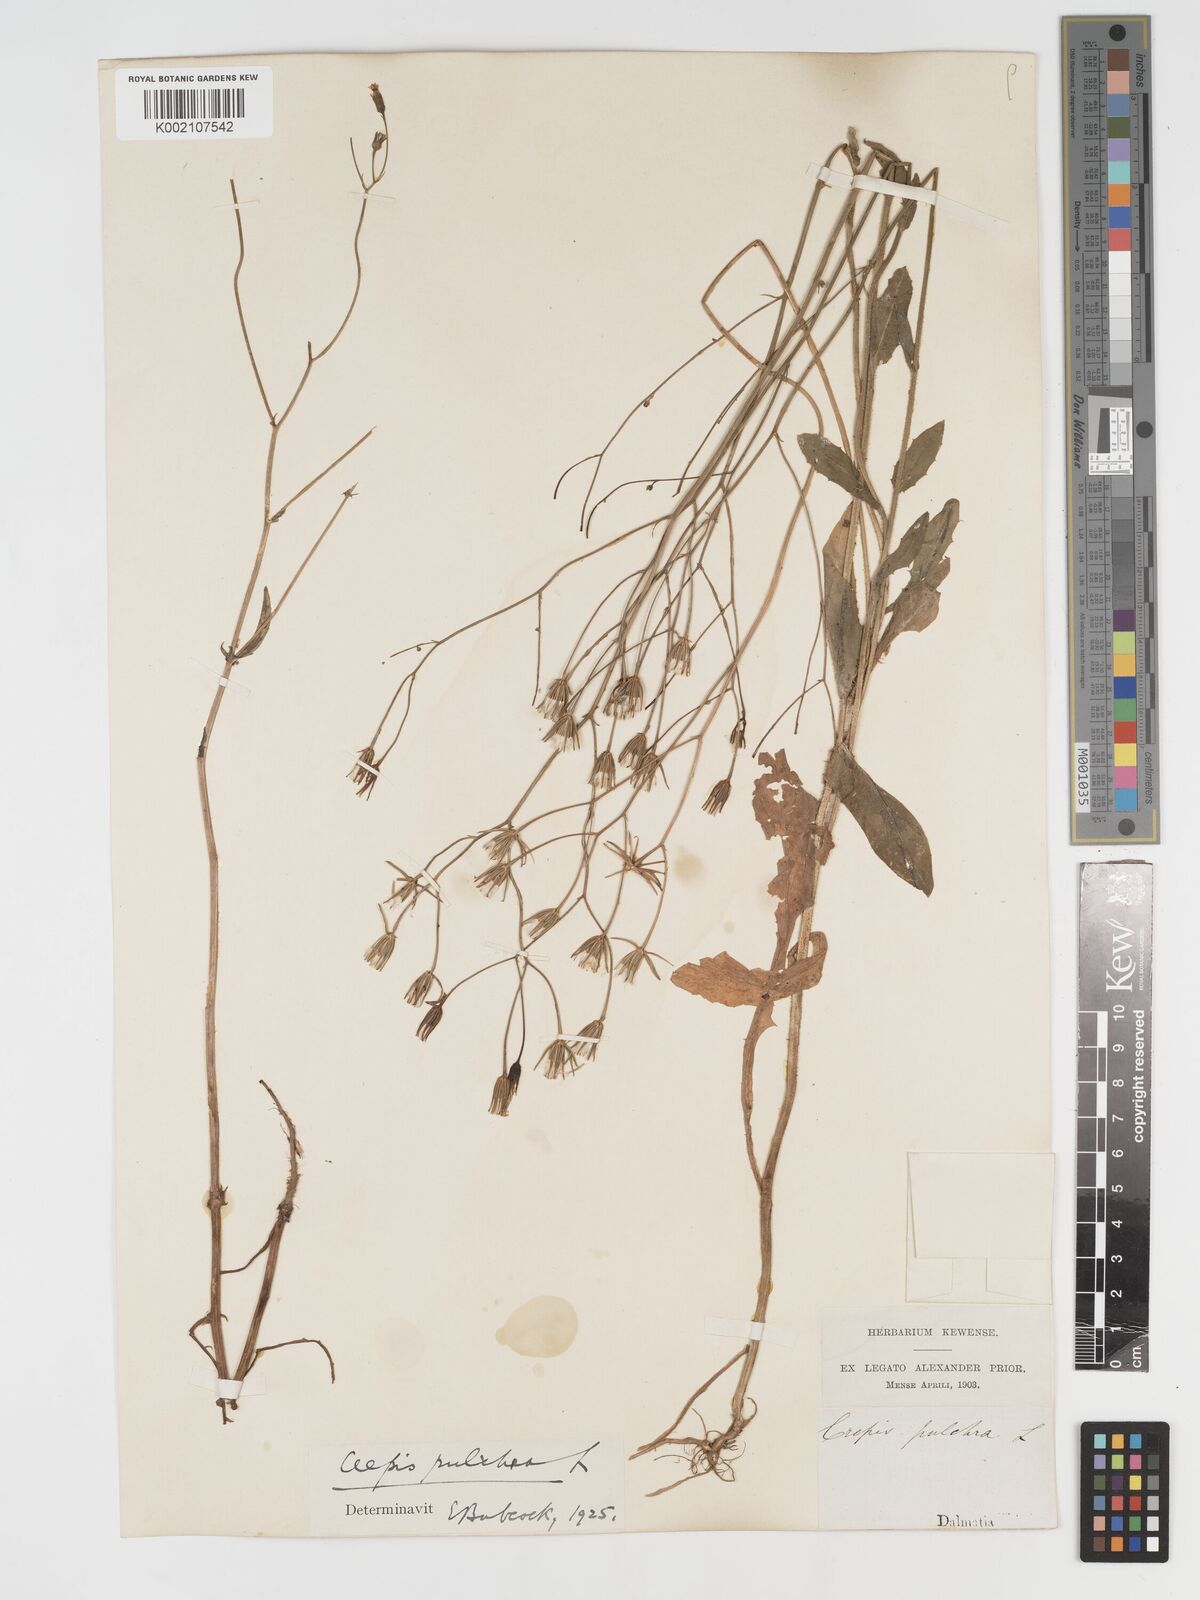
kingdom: Plantae
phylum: Tracheophyta
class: Magnoliopsida
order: Asterales
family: Asteraceae
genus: Crepis
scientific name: Crepis pulchra
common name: Hawk's-beard
